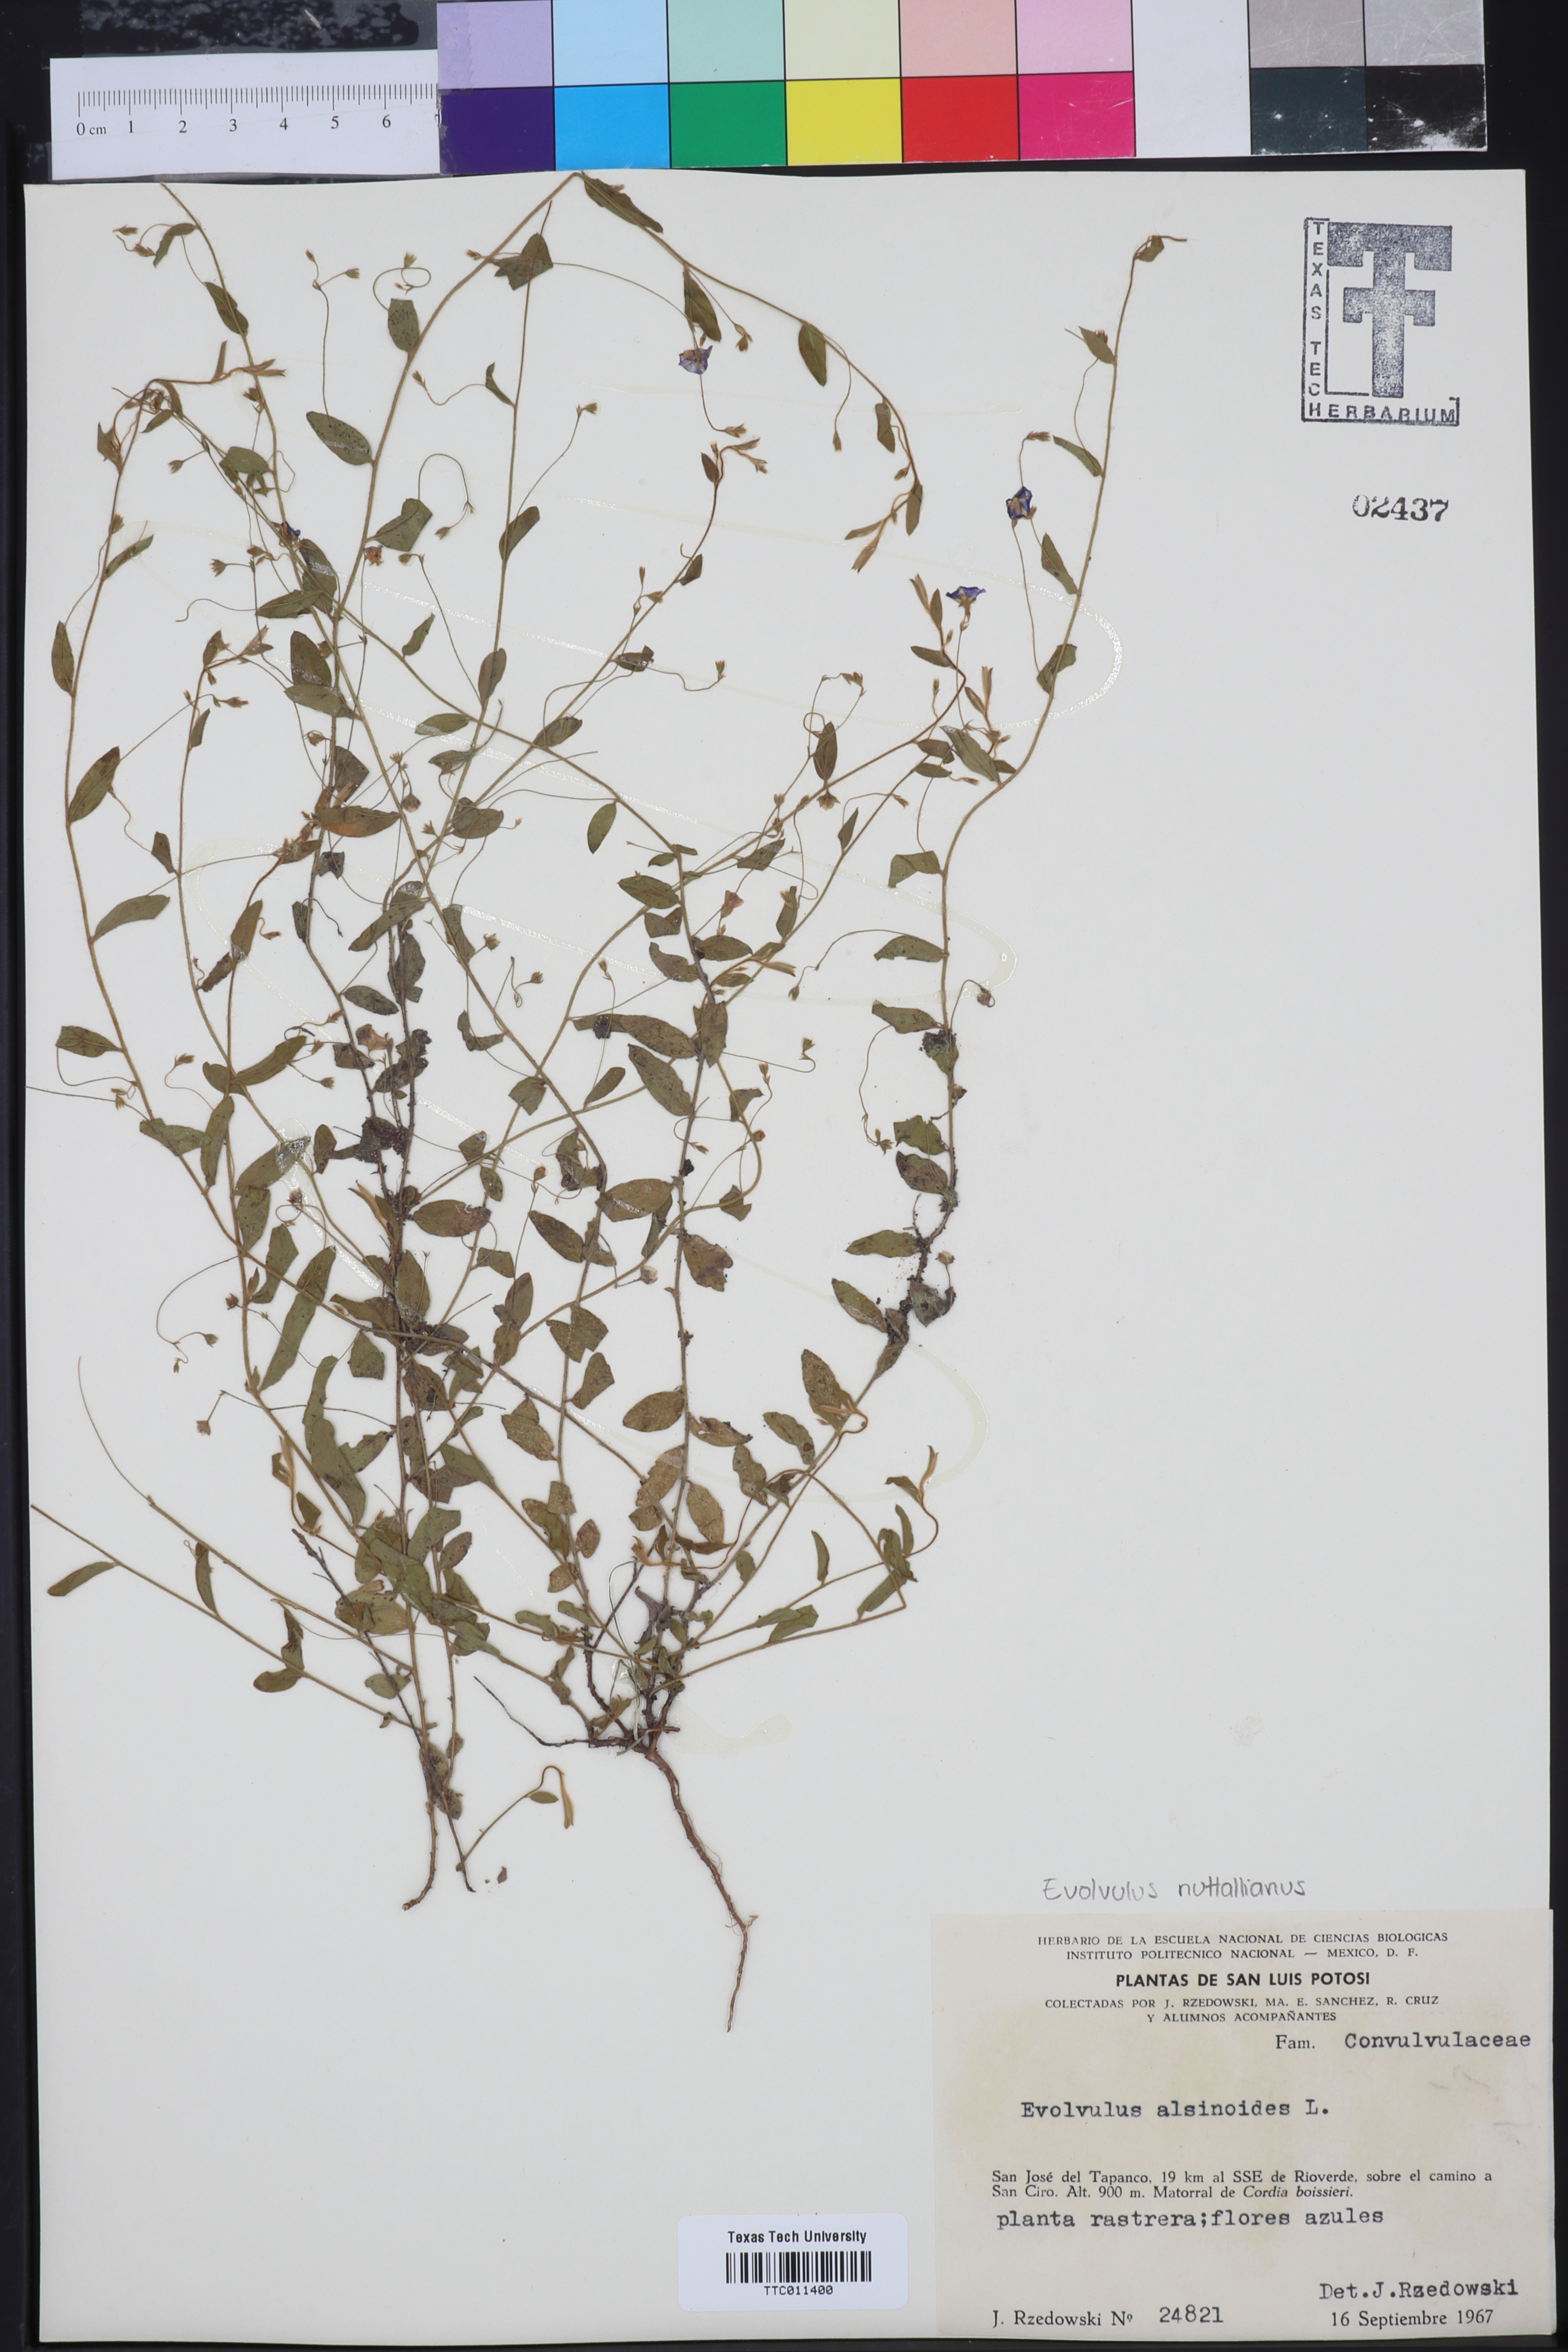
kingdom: Plantae
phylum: Tracheophyta
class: Magnoliopsida
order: Solanales
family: Convolvulaceae
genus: Evolvulus
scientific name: Evolvulus alsinoides
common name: Slender dwarf morning-glory
